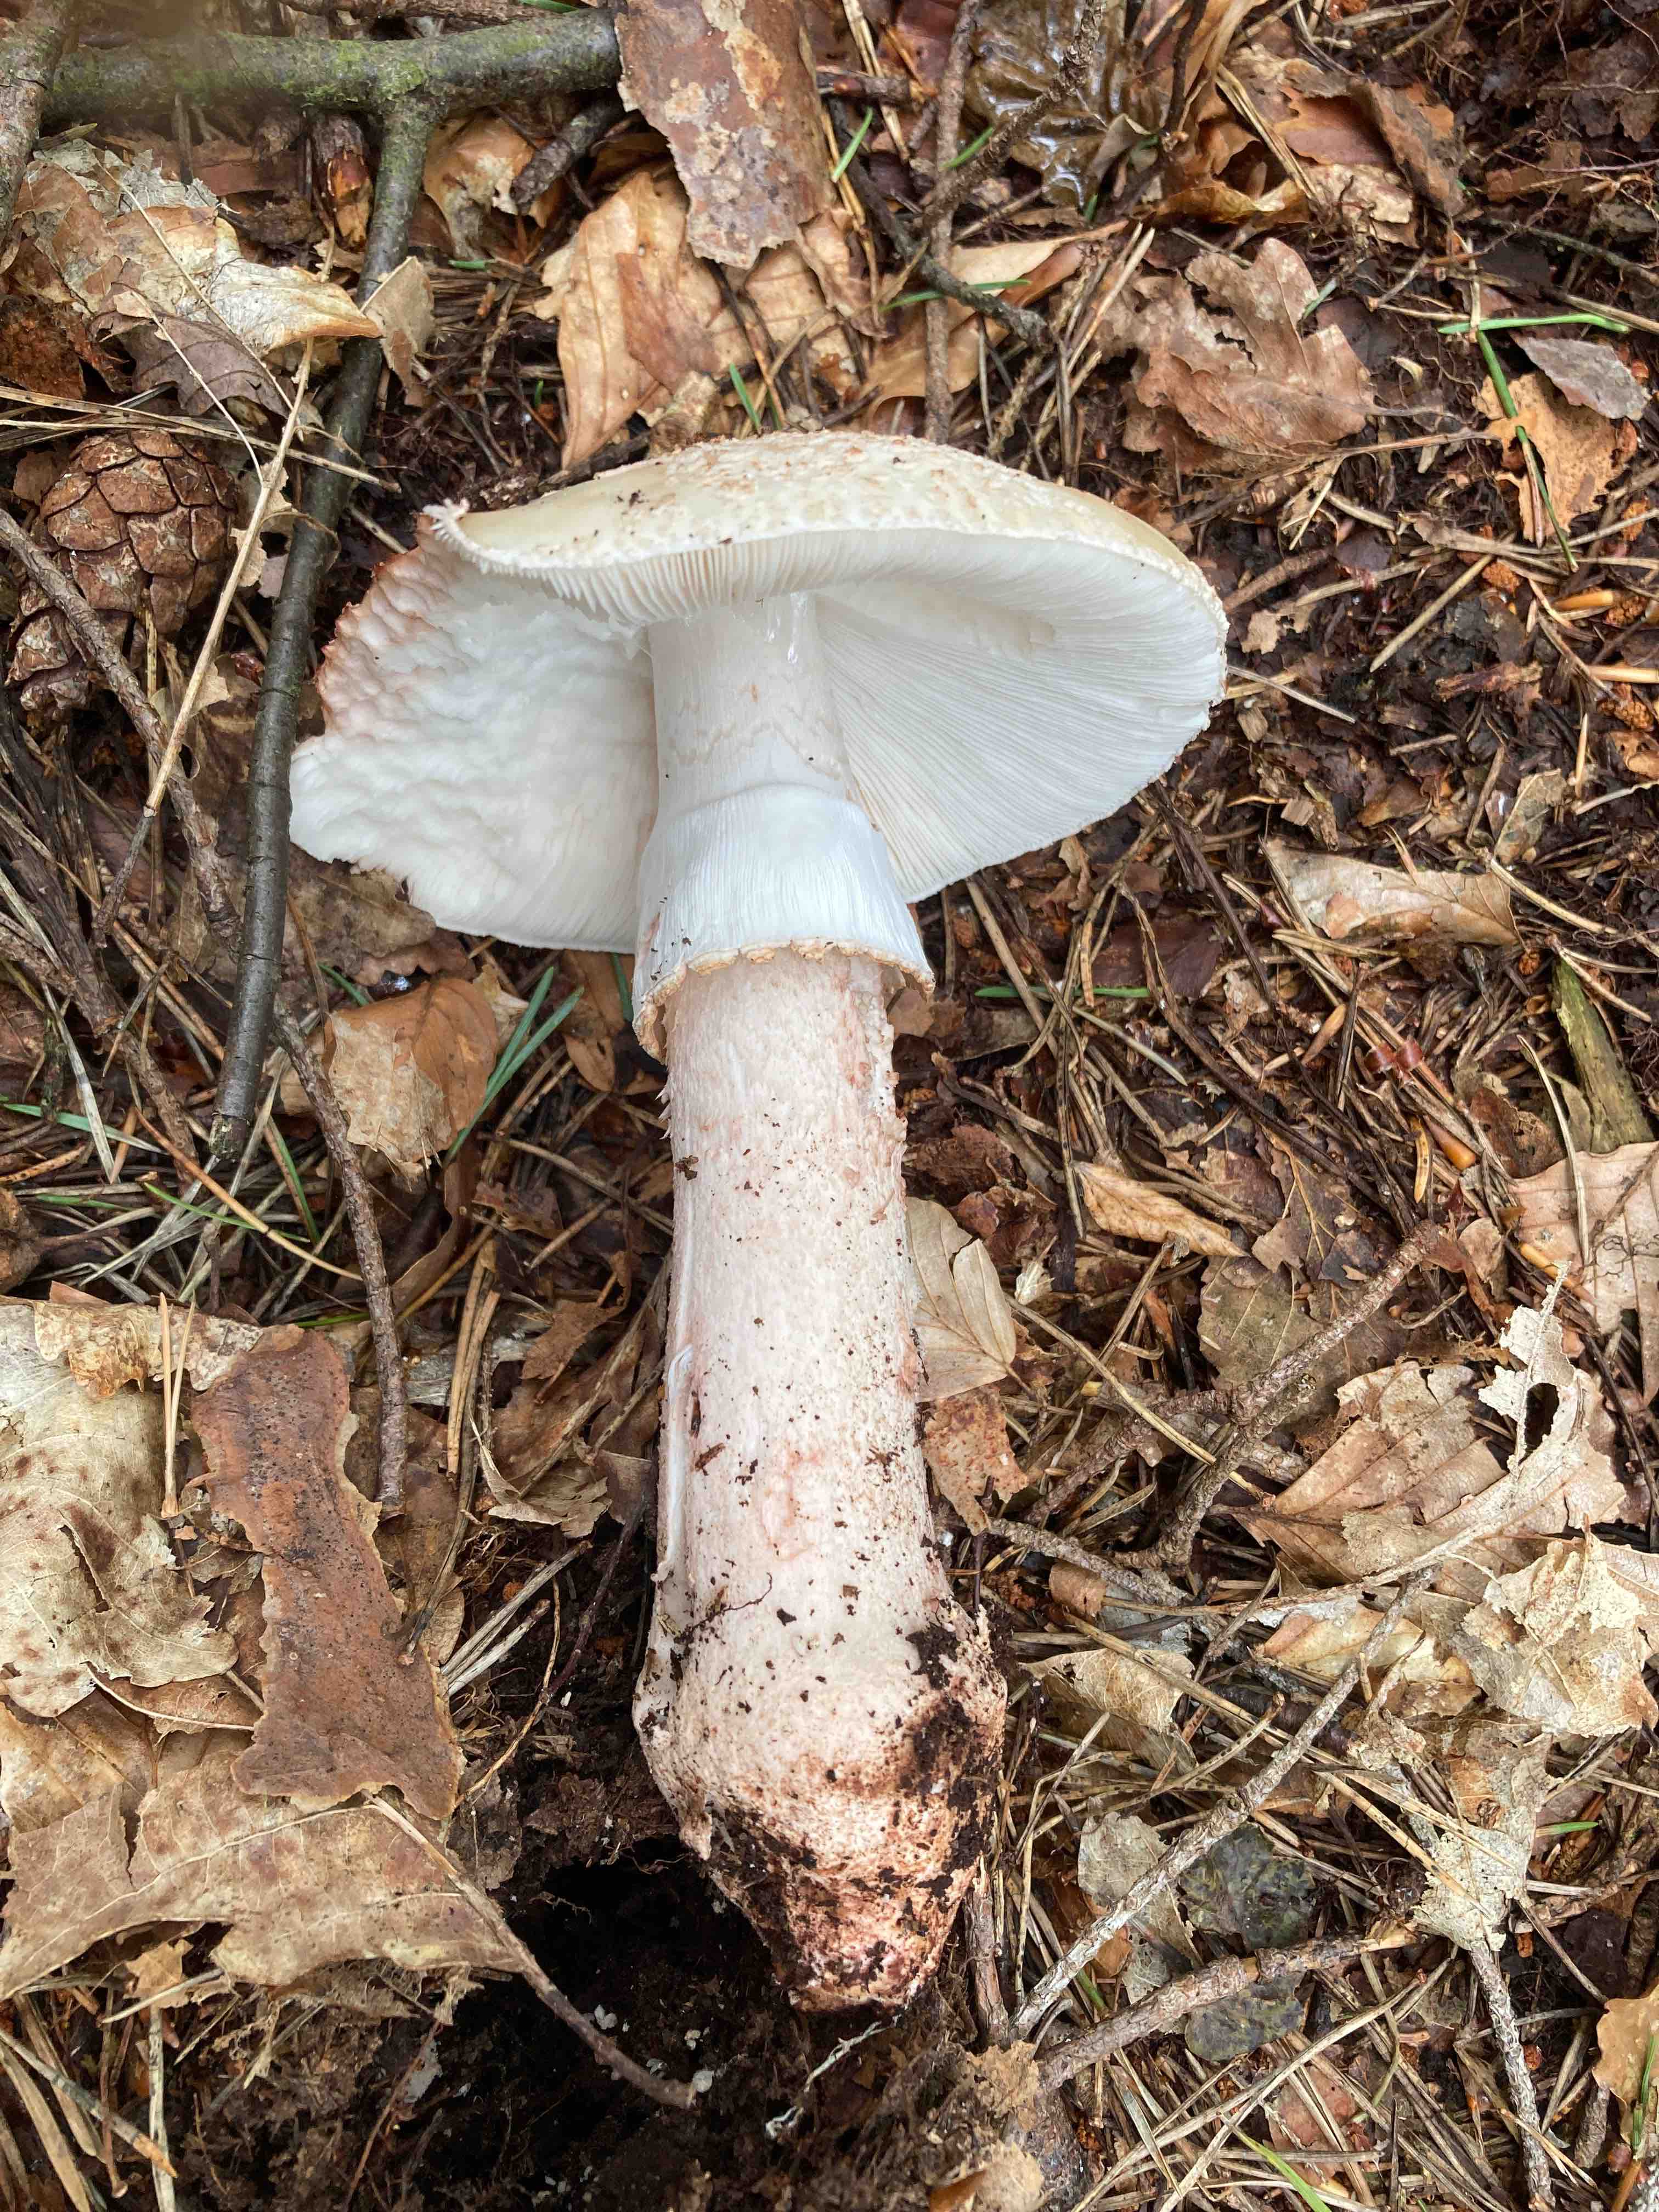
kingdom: Fungi
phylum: Basidiomycota
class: Agaricomycetes
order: Agaricales
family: Amanitaceae
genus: Amanita
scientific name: Amanita rubescens
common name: rødmende fluesvamp
